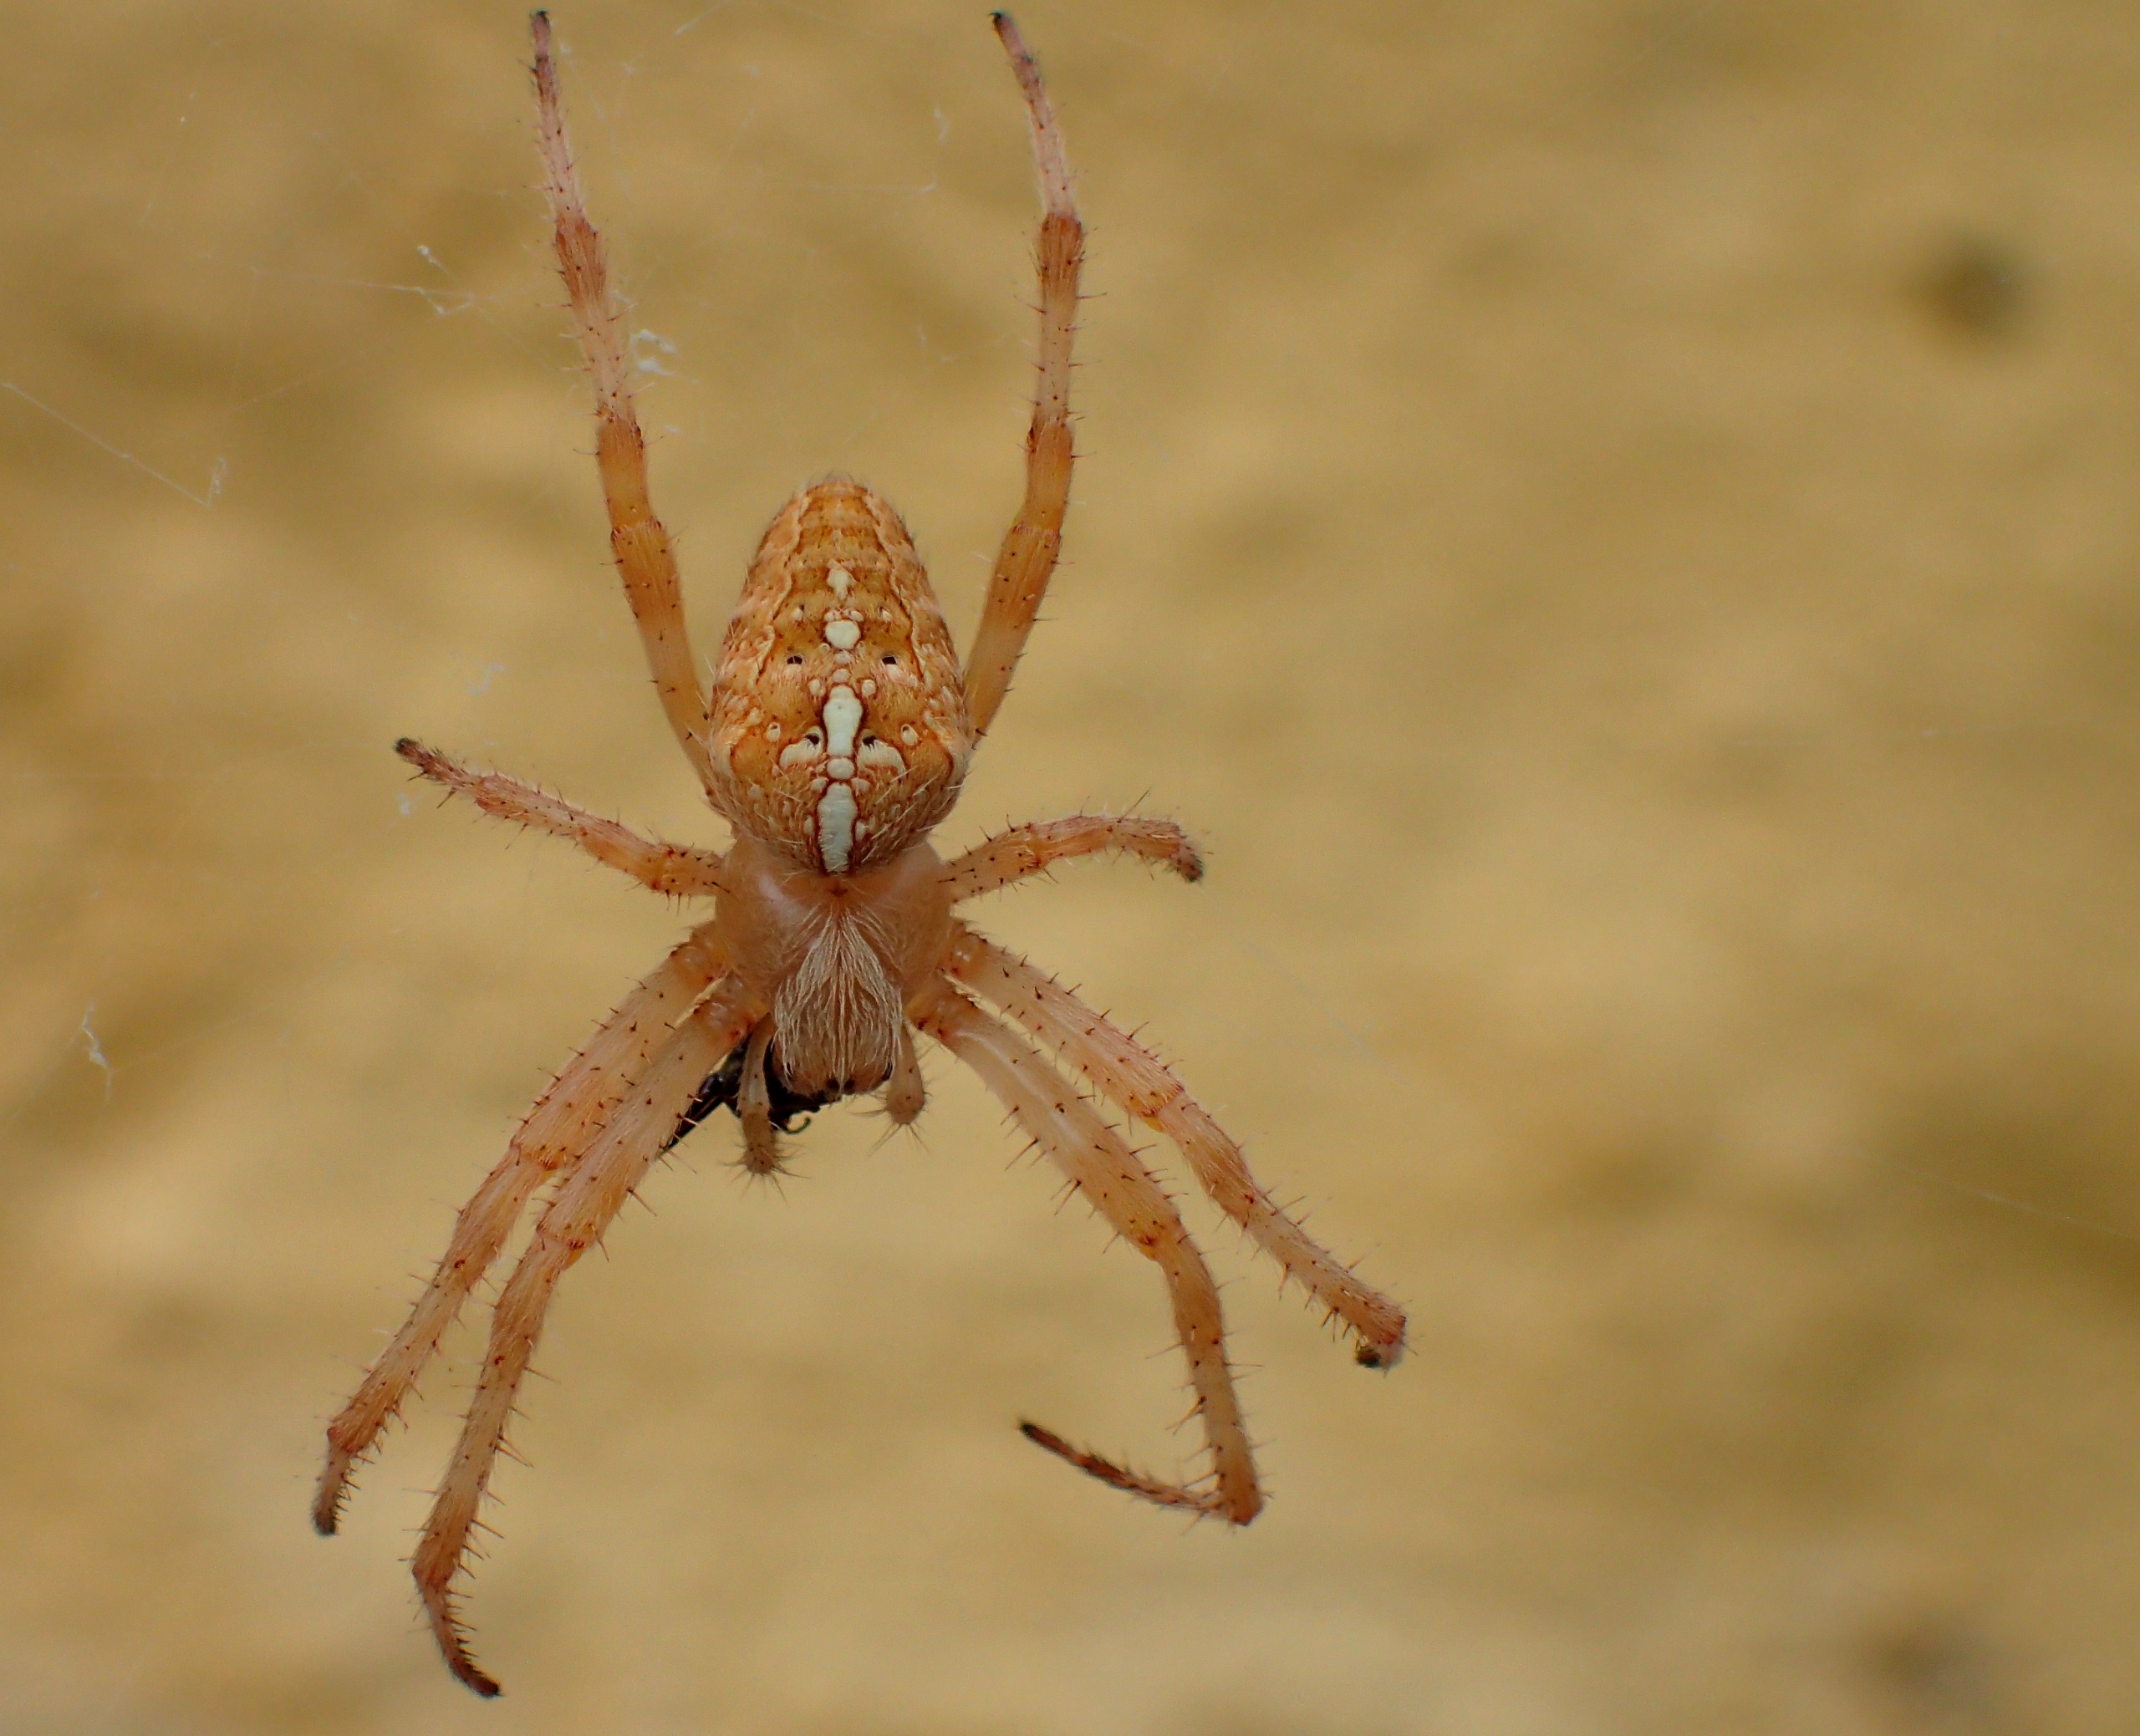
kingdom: Animalia
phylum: Arthropoda
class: Arachnida
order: Araneae
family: Araneidae
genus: Araneus
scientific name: Araneus diadematus
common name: Korsedderkop
